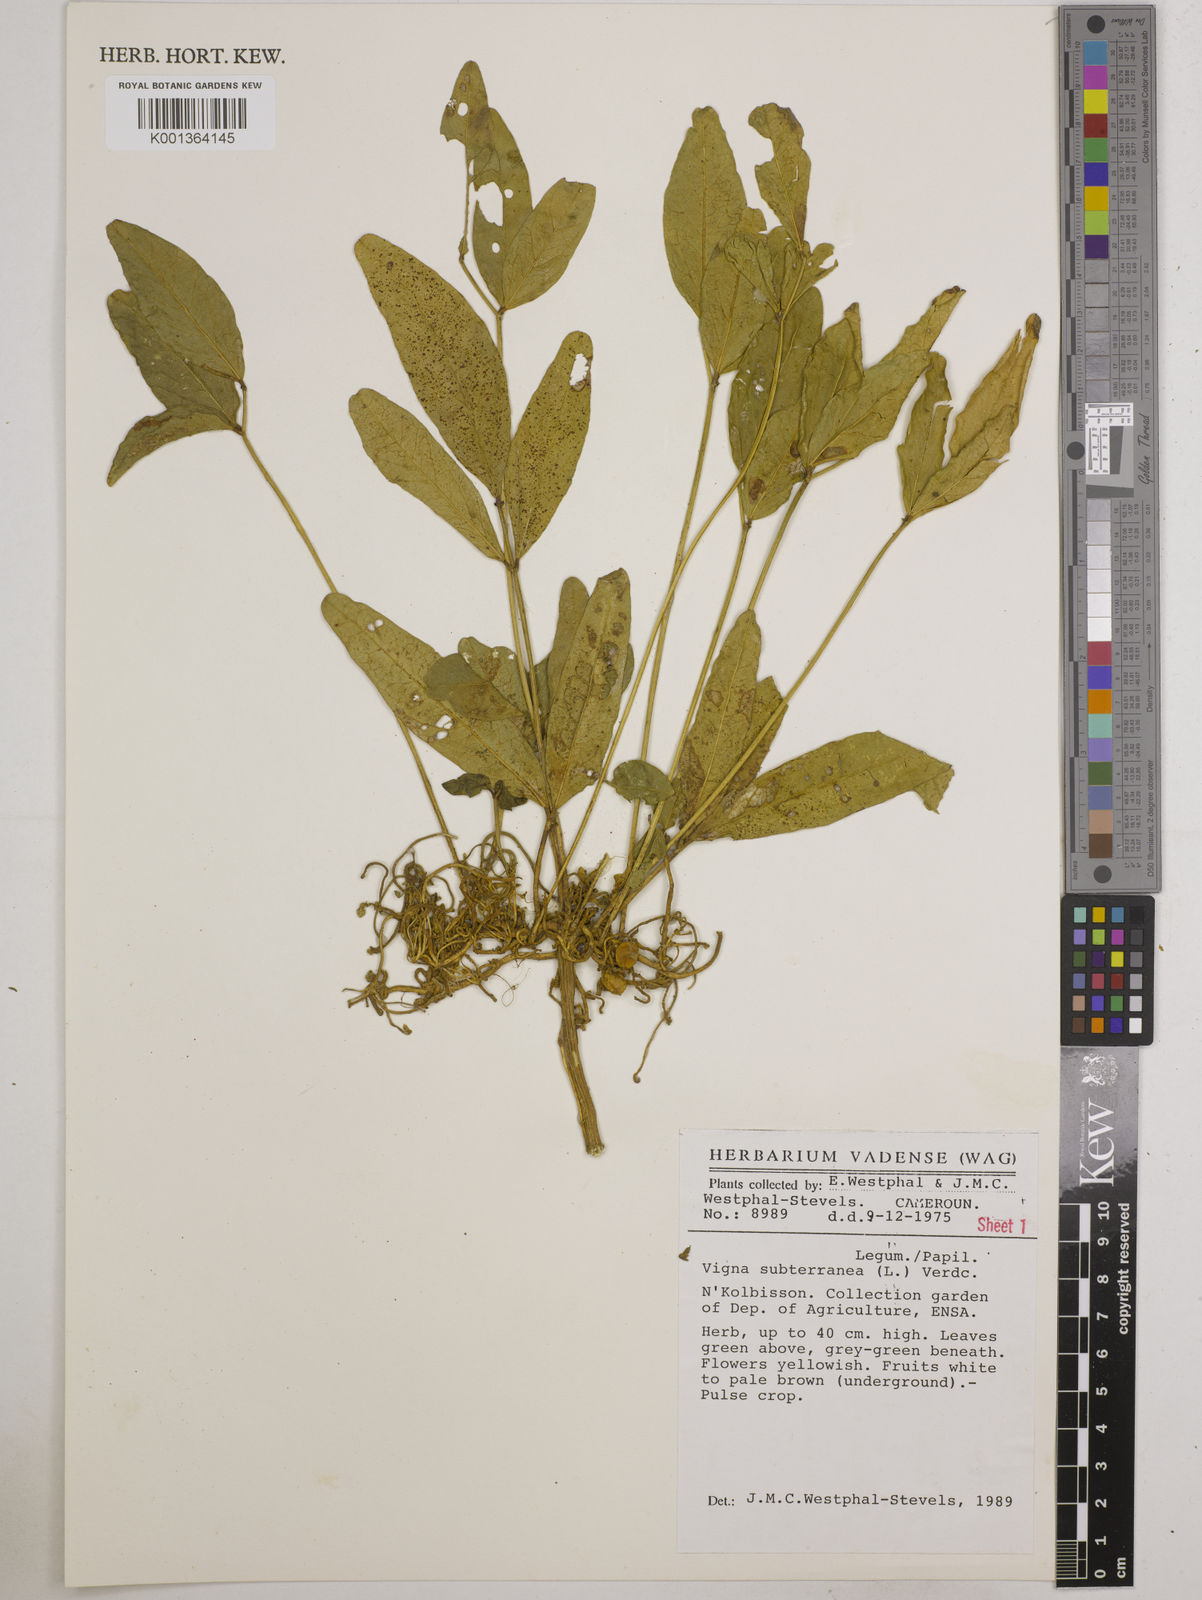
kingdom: Plantae
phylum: Tracheophyta
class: Magnoliopsida
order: Fabales
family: Fabaceae
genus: Vigna
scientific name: Vigna subterranea
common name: Bambara groundnut
